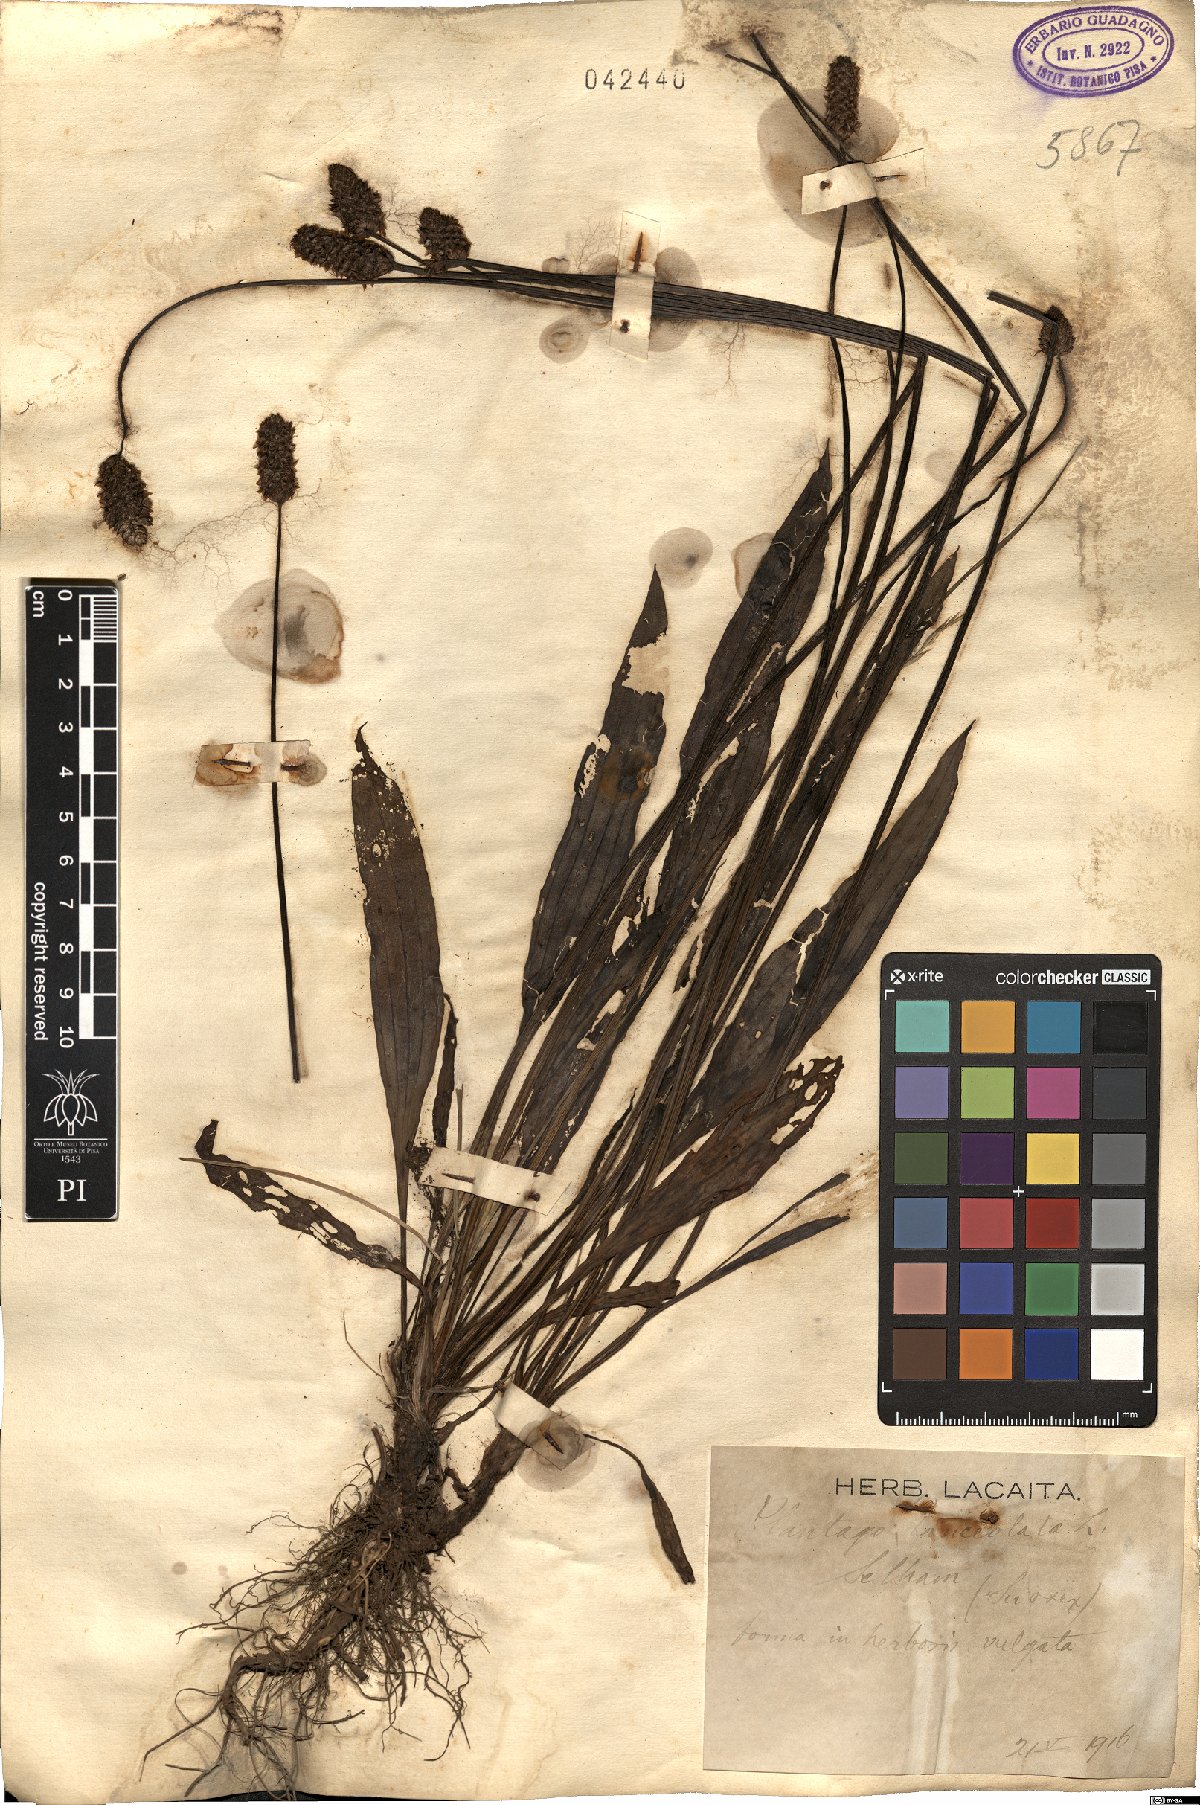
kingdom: Plantae
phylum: Tracheophyta
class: Magnoliopsida
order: Lamiales
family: Plantaginaceae
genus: Plantago
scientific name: Plantago lanceolata
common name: Ribwort plantain
